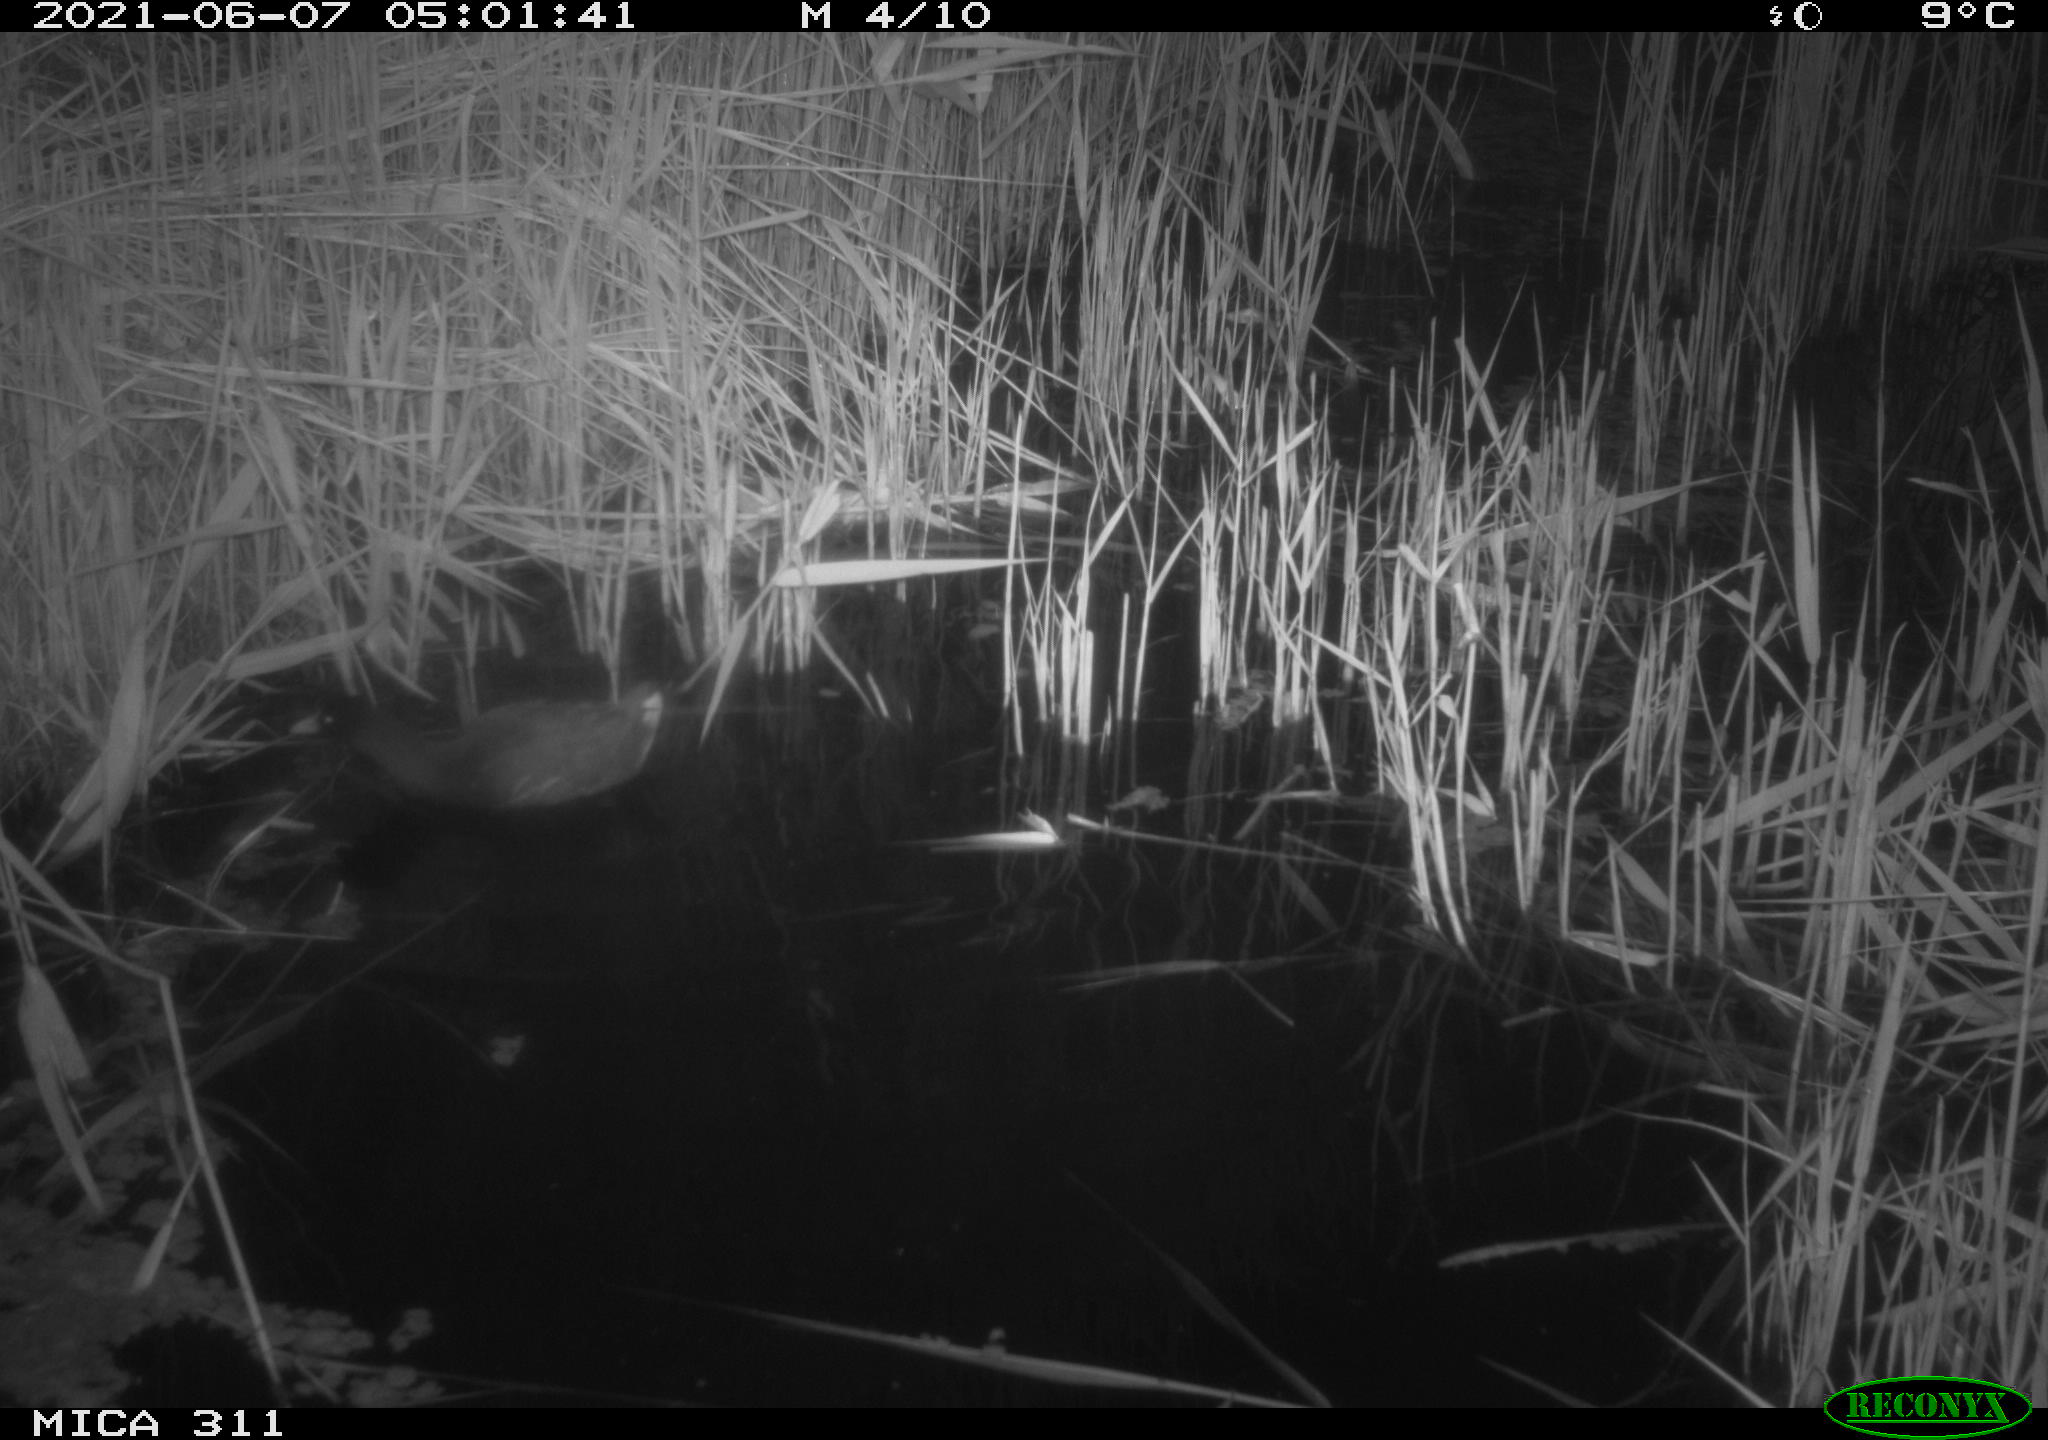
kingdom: Animalia
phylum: Chordata
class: Aves
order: Gruiformes
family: Rallidae
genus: Gallinula
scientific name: Gallinula chloropus
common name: Common moorhen
